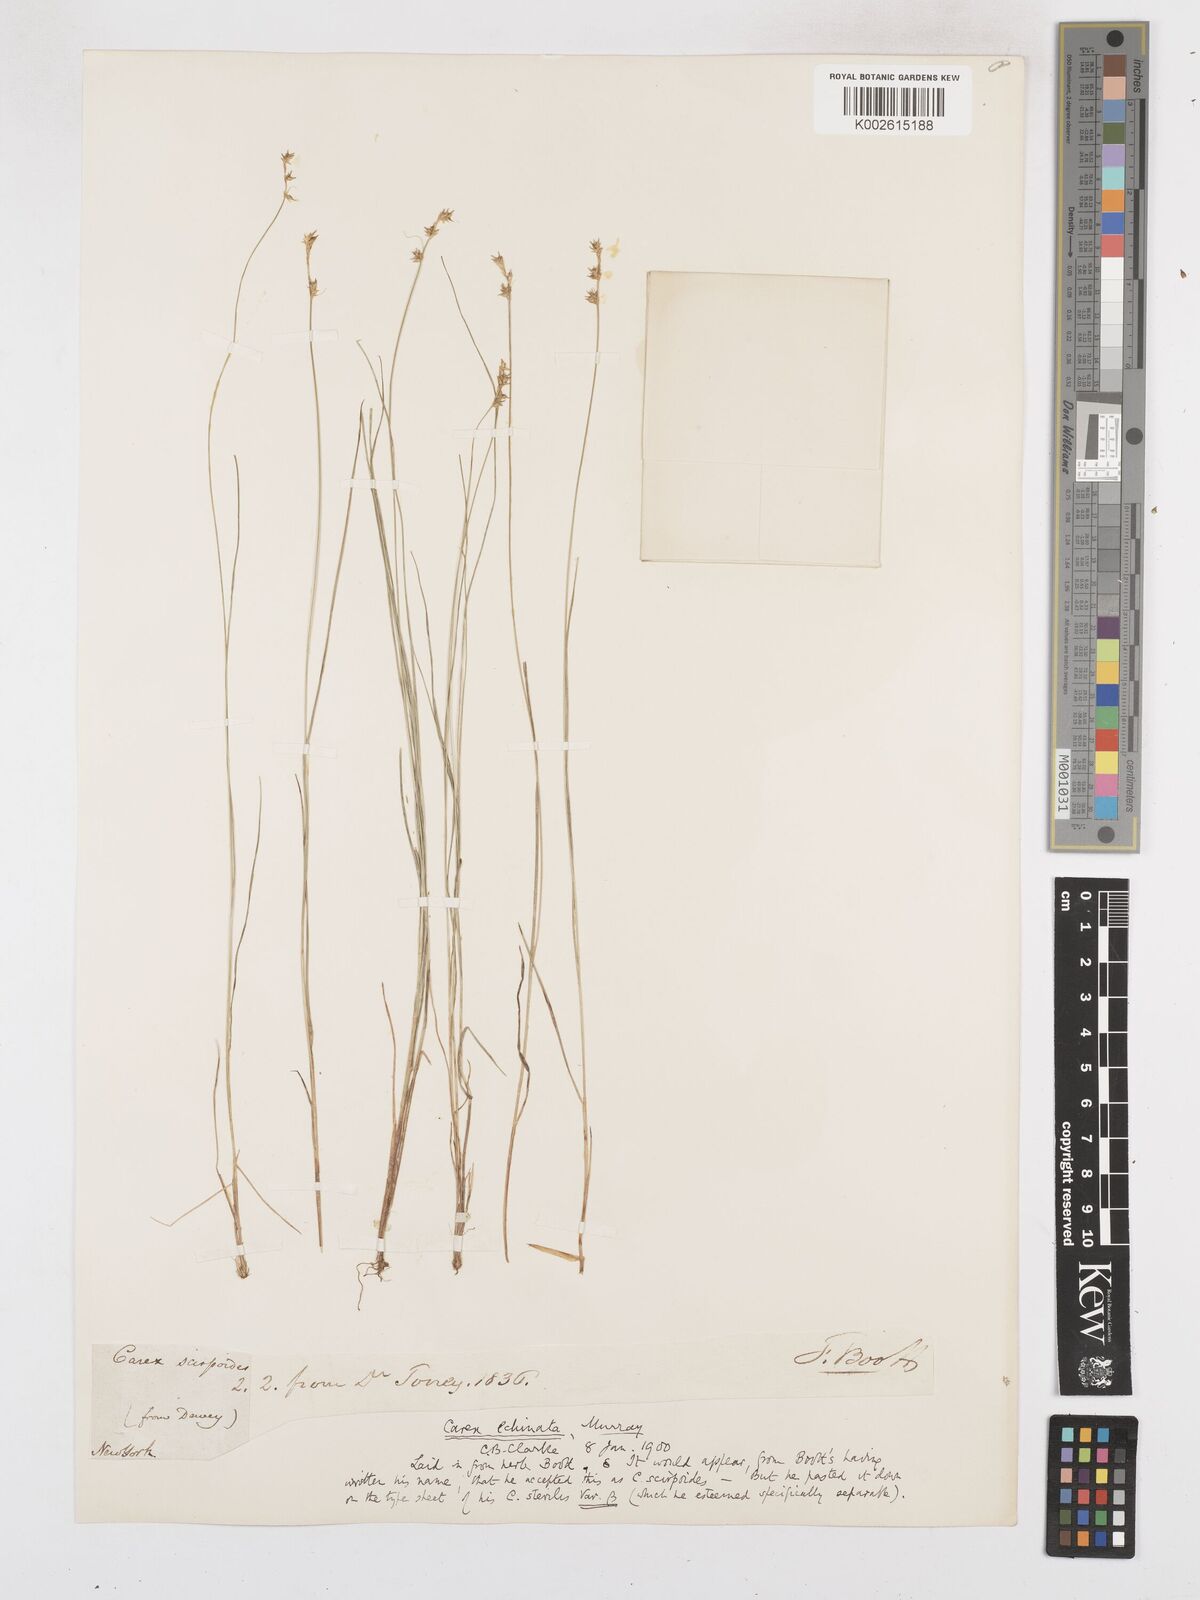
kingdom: Plantae
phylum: Tracheophyta
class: Liliopsida
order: Poales
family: Cyperaceae
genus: Carex
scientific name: Carex echinata
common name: Star sedge
